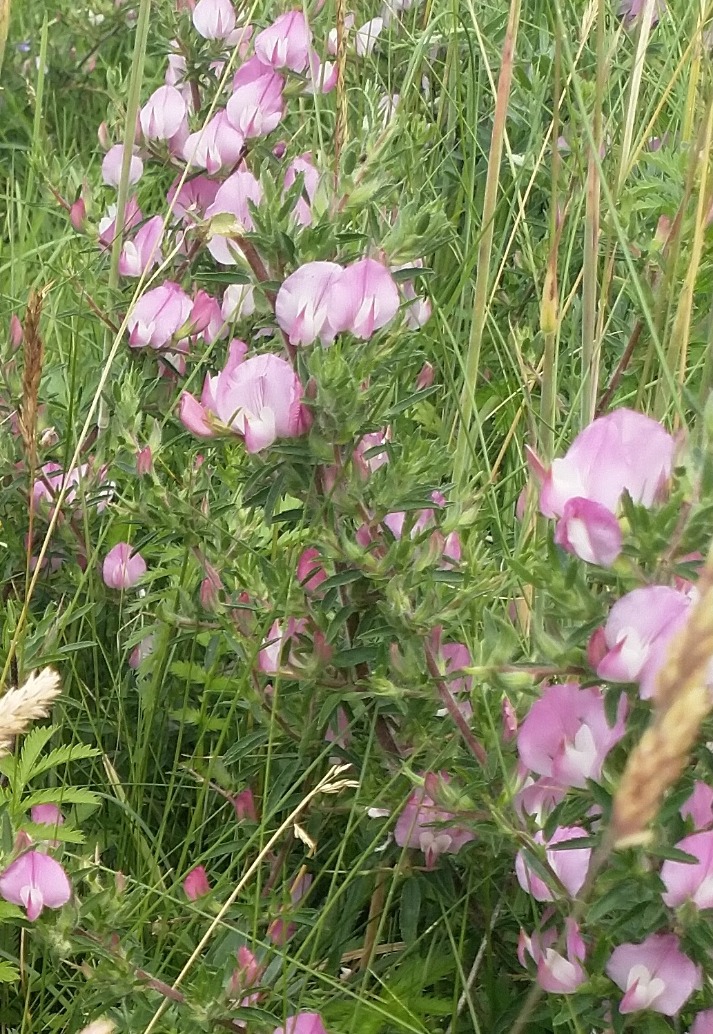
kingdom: Plantae
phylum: Tracheophyta
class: Magnoliopsida
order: Fabales
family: Fabaceae
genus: Ononis
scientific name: Ononis spinosa
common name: Strand-krageklo
